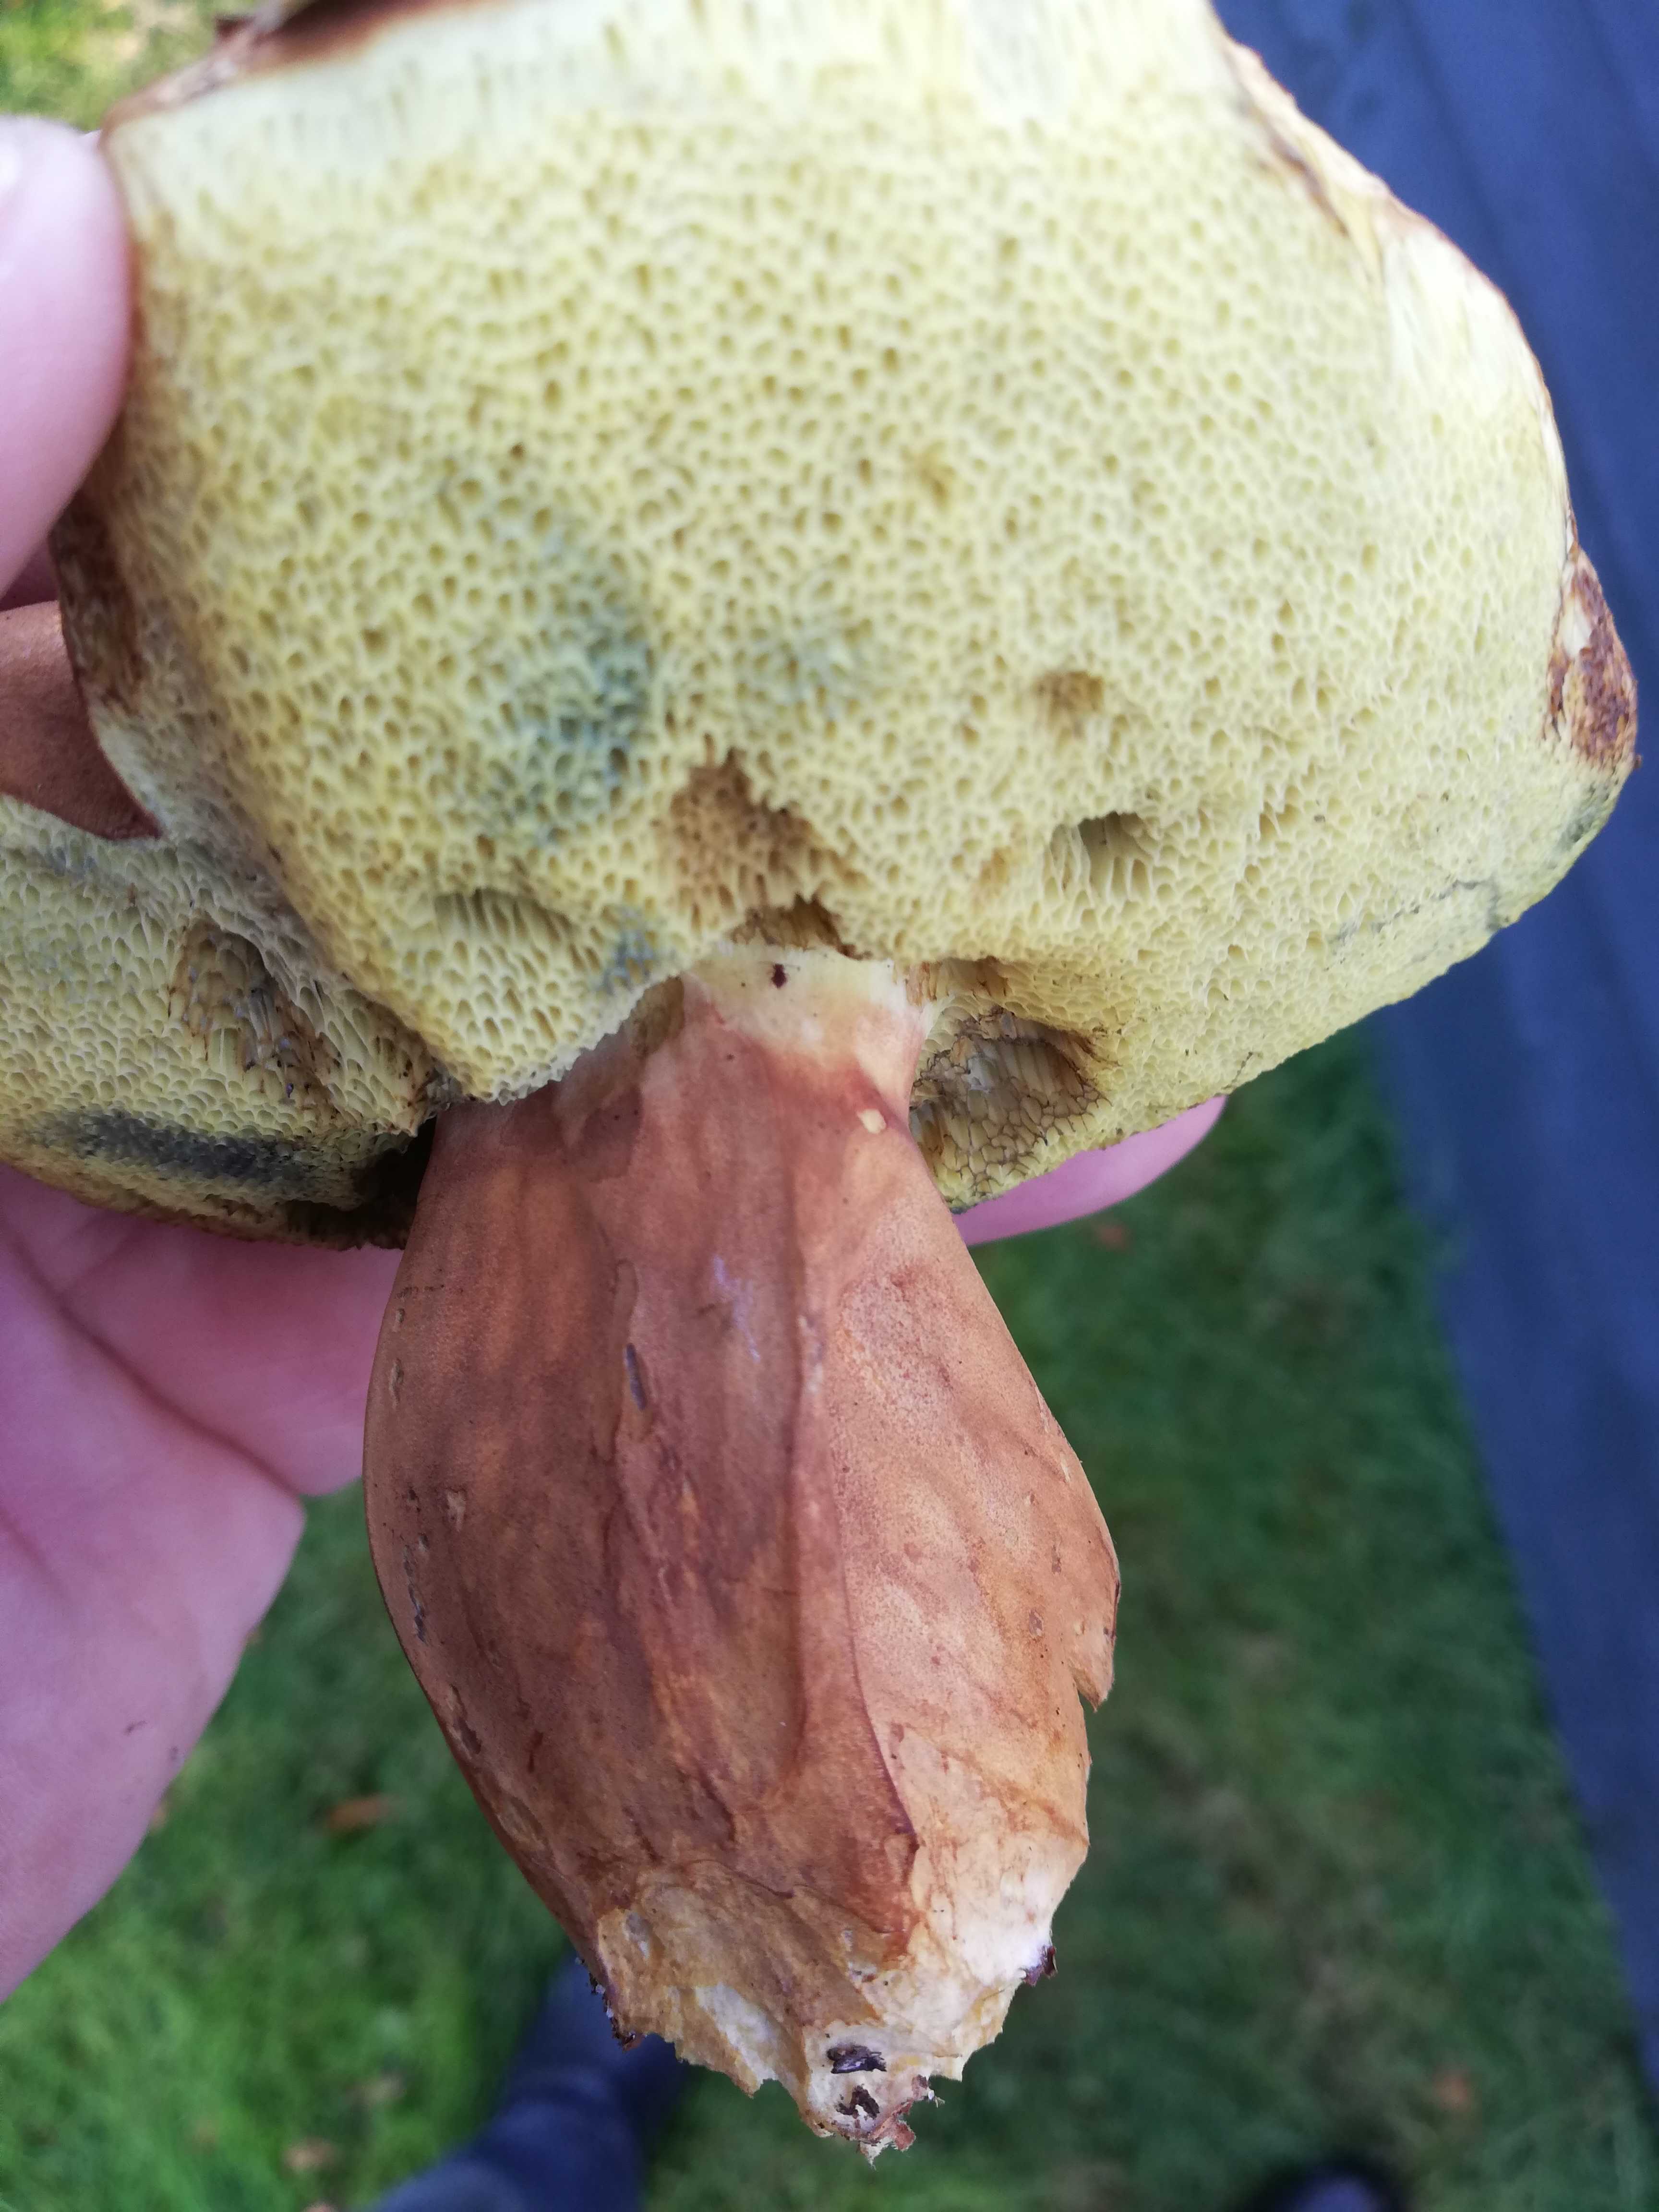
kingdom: Fungi
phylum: Basidiomycota
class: Agaricomycetes
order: Boletales
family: Boletaceae
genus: Imleria
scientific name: Imleria badia
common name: brunstokket rørhat
